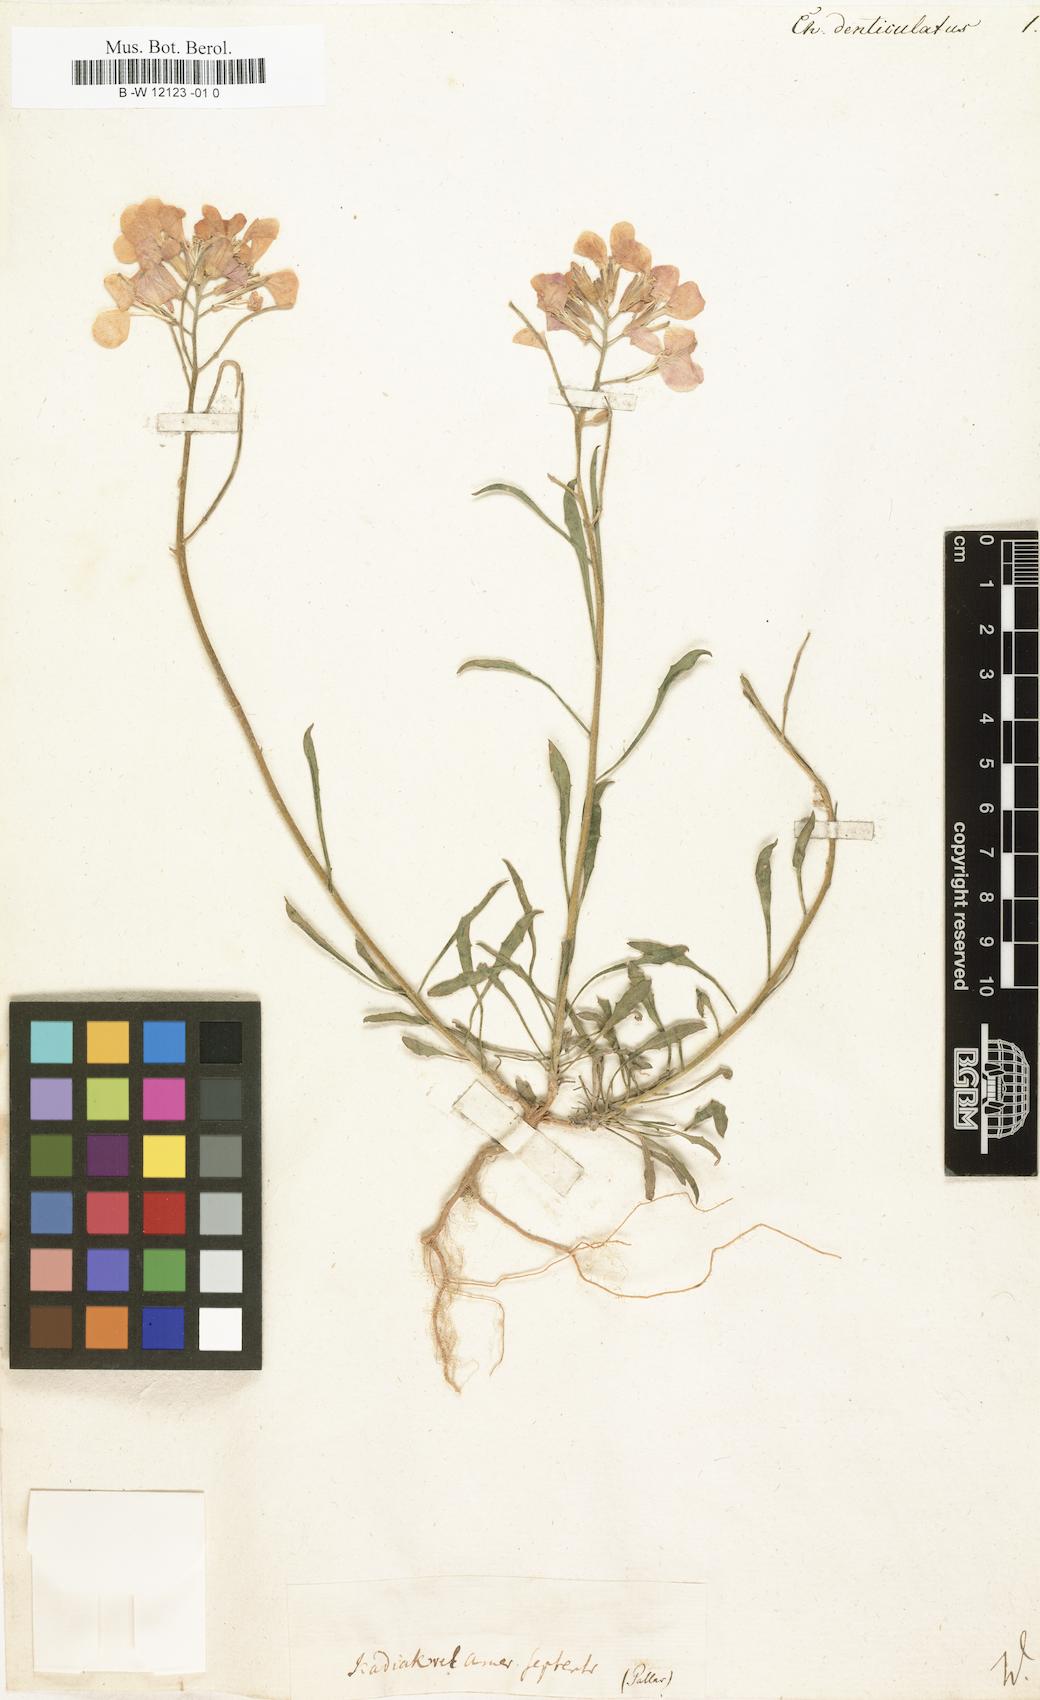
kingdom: Plantae
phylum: Tracheophyta
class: Magnoliopsida
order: Brassicales
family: Brassicaceae
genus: Erysimum
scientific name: Erysimum
